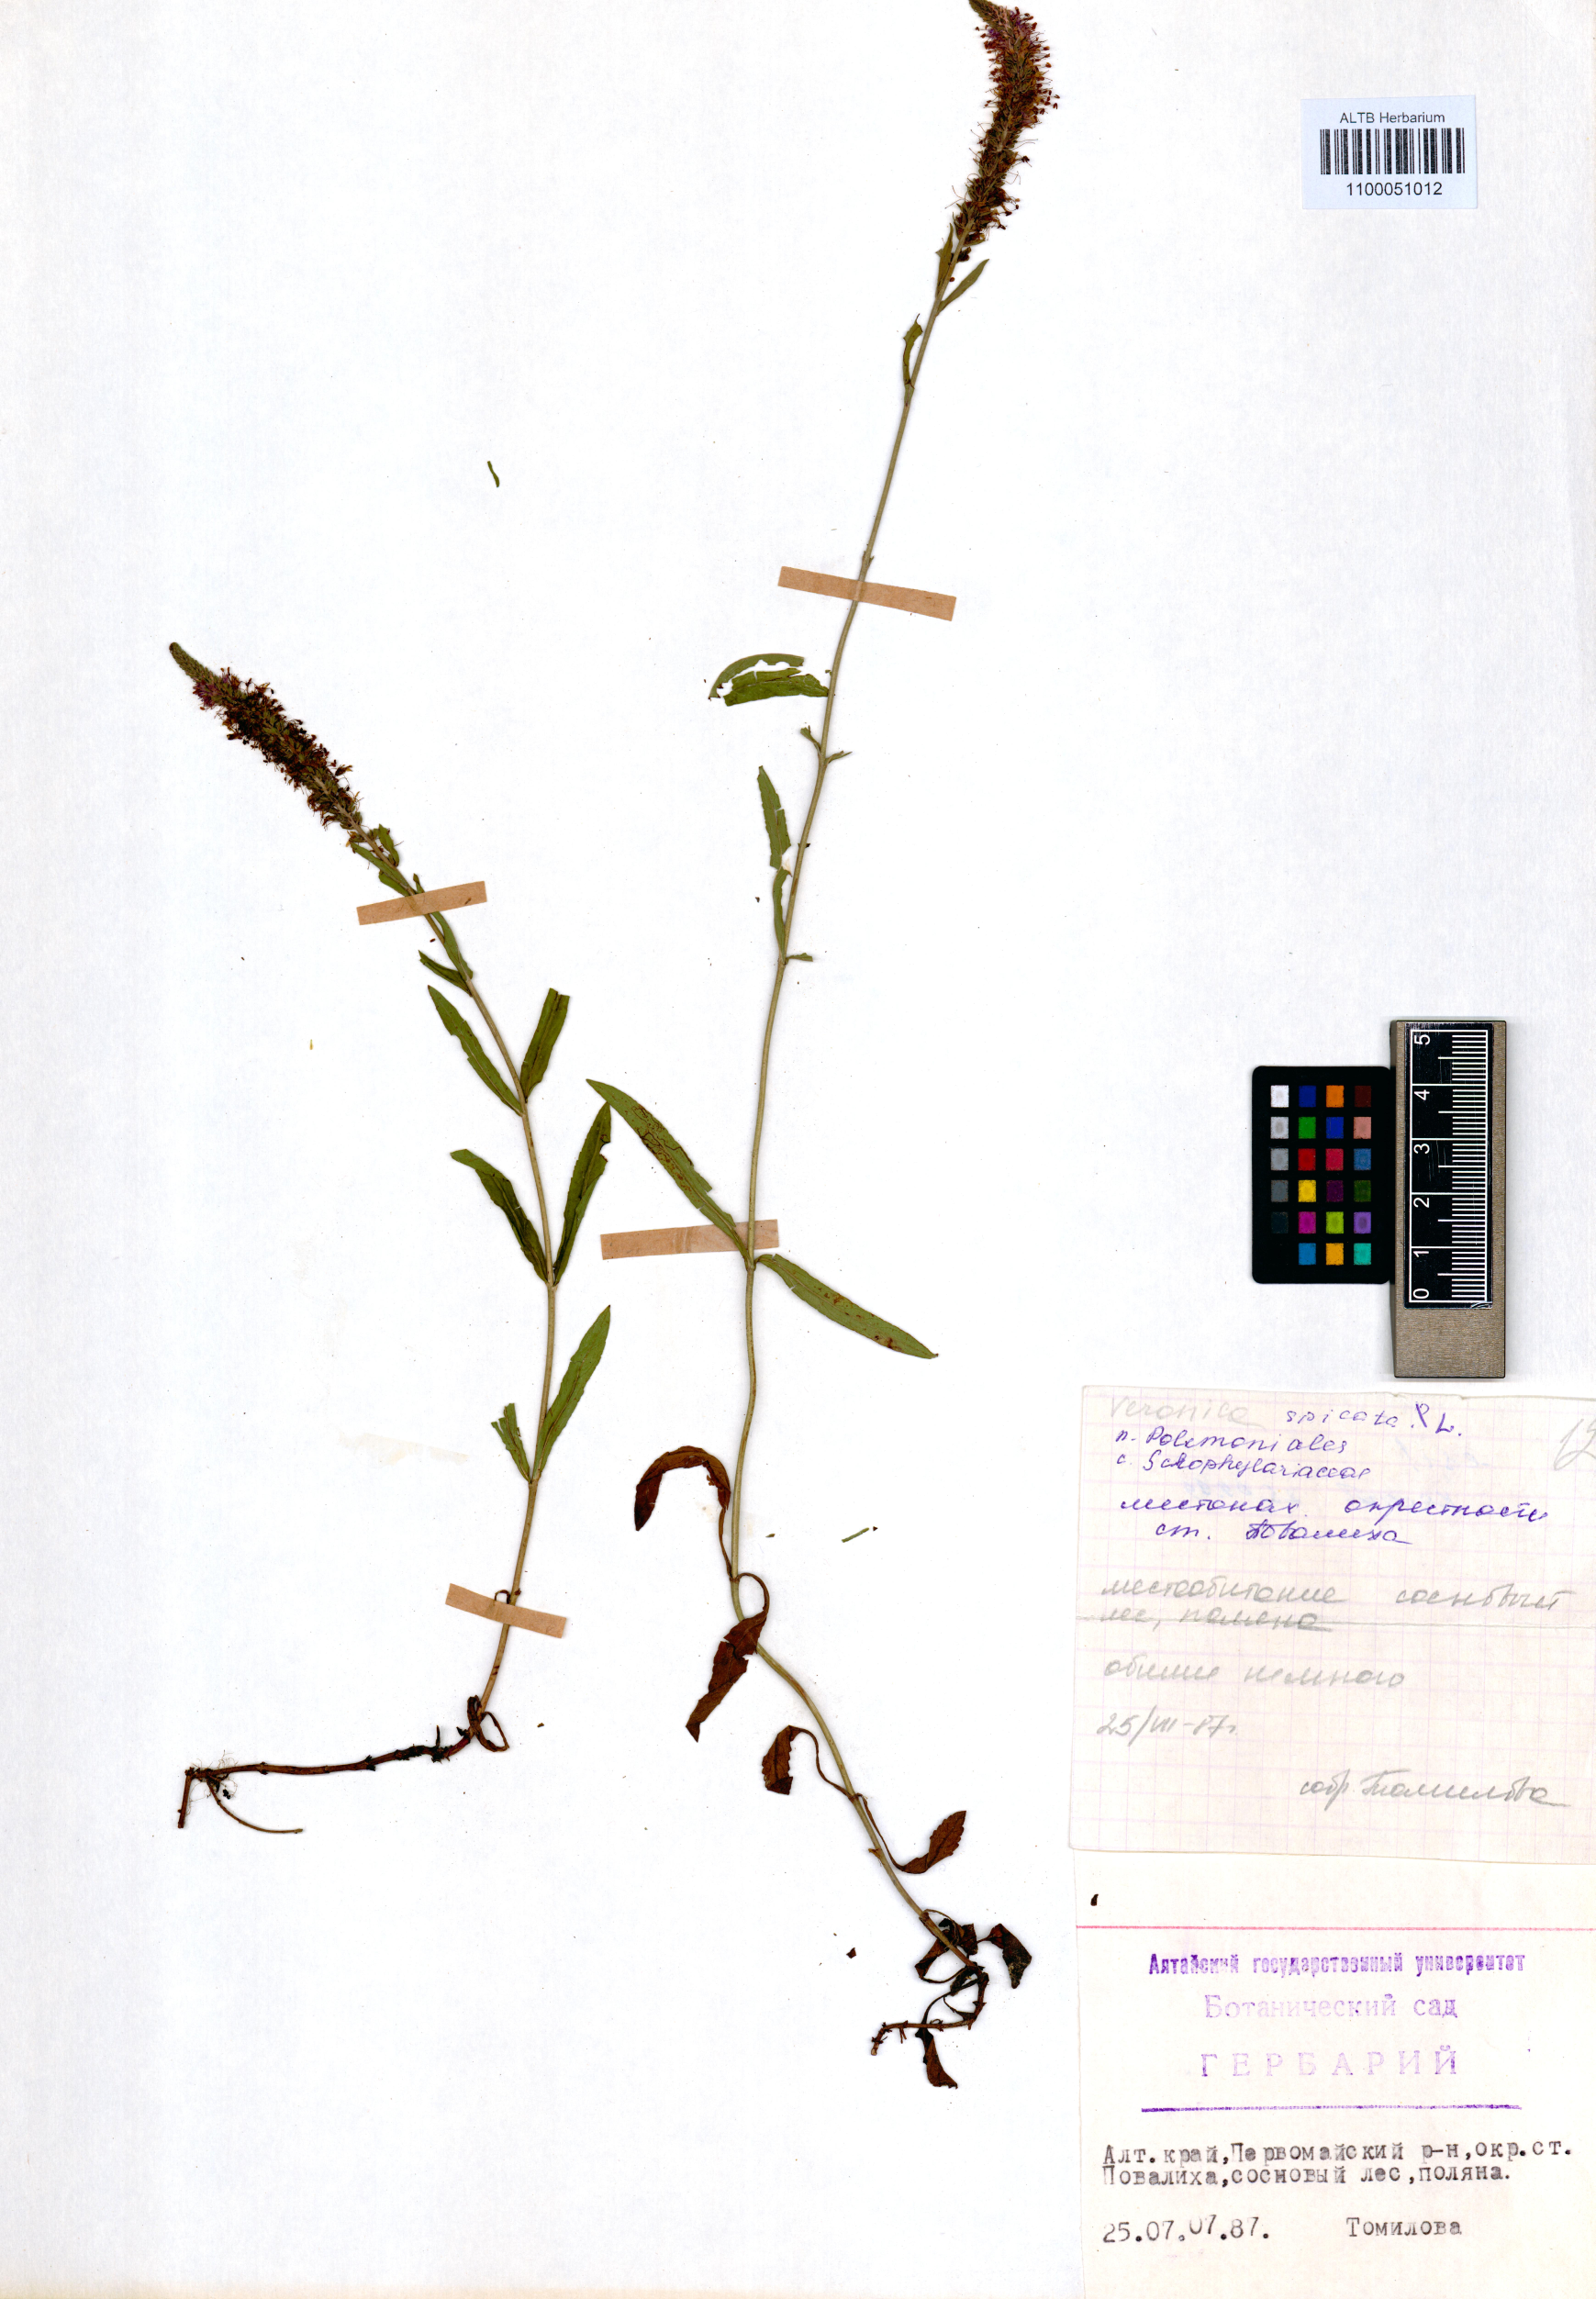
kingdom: Plantae
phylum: Tracheophyta
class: Magnoliopsida
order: Lamiales
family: Plantaginaceae
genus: Veronica
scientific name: Veronica spicata
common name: Spiked speedwell
